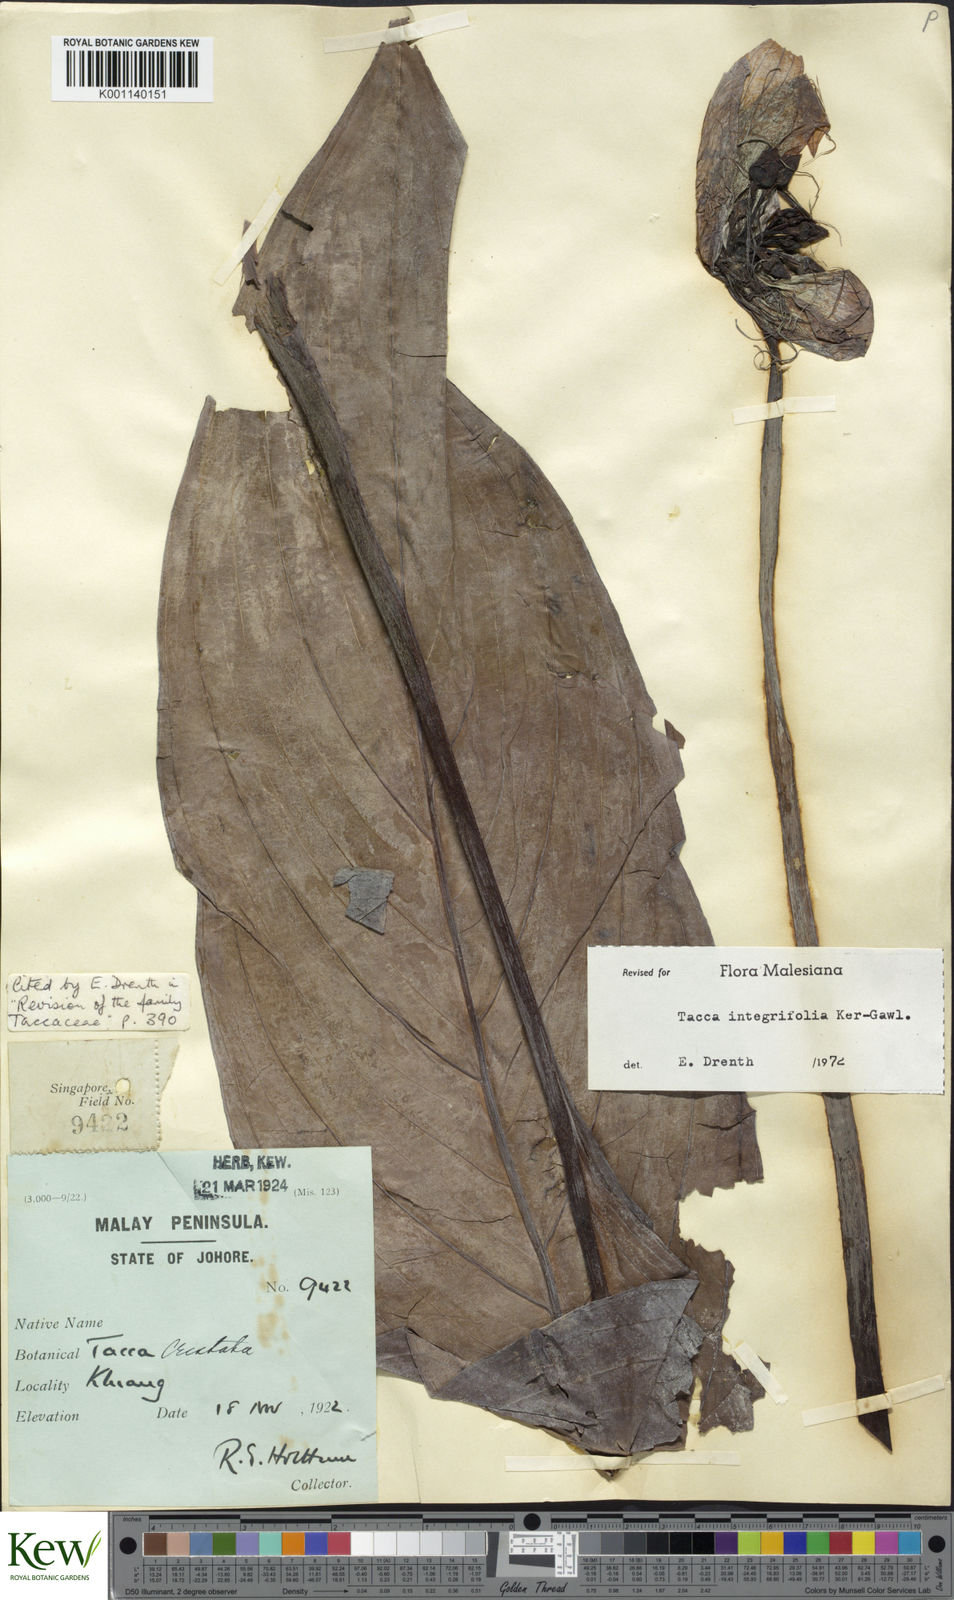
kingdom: Plantae
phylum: Tracheophyta
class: Liliopsida
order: Dioscoreales
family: Dioscoreaceae
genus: Tacca
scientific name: Tacca integrifolia
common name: Batplant
